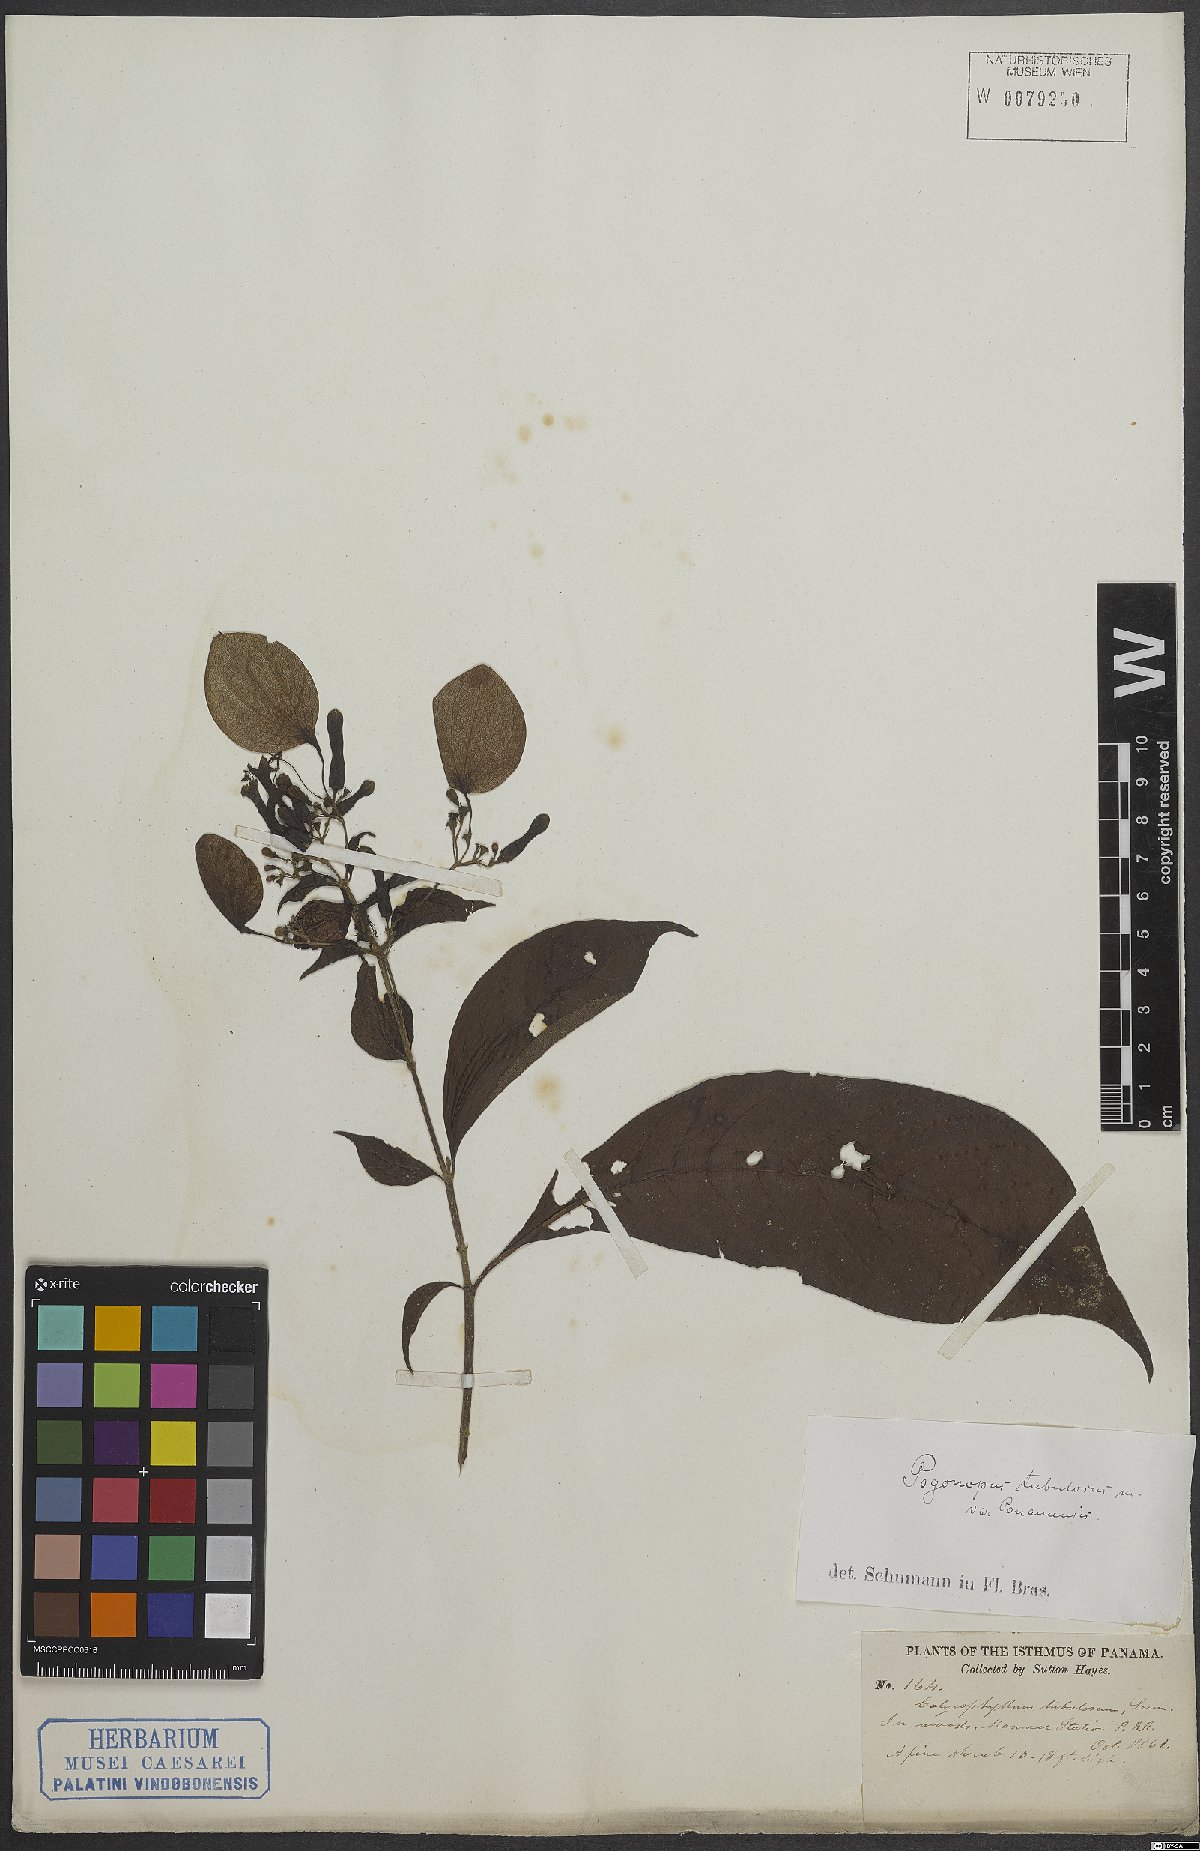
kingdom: Plantae
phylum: Tracheophyta
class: Magnoliopsida
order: Gentianales
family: Rubiaceae
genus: Pogonopus
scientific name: Pogonopus tubulosus
